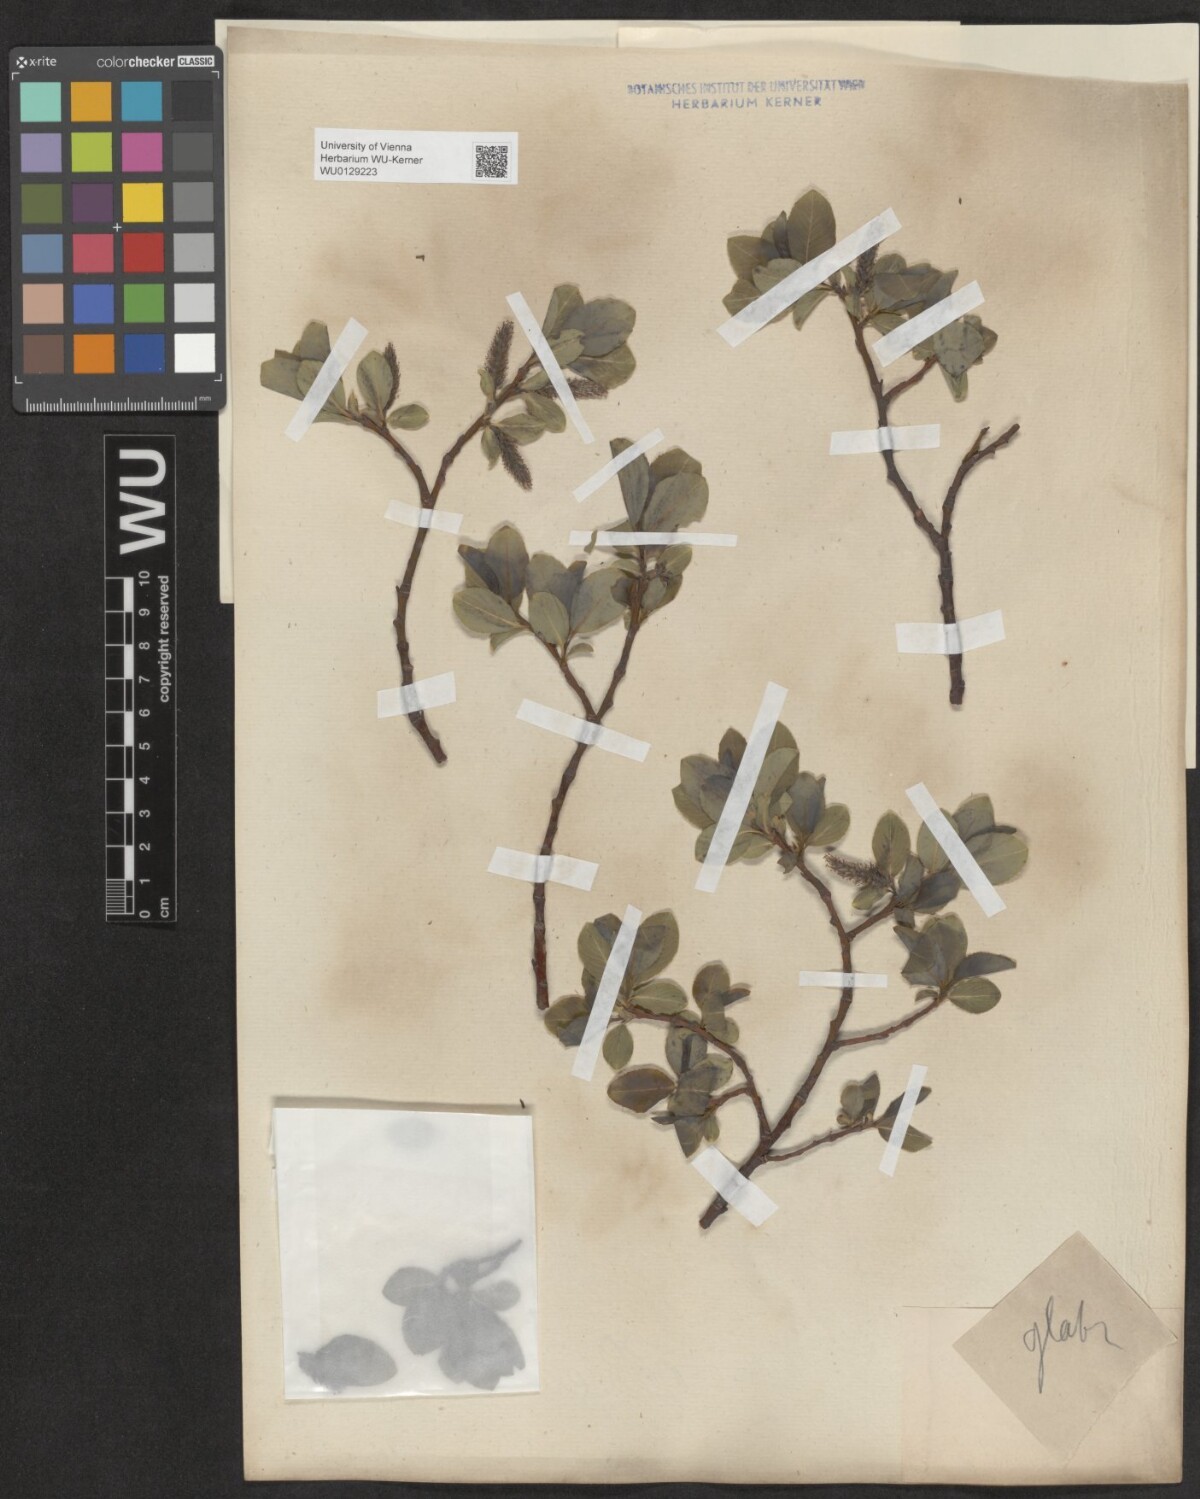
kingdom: Plantae
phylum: Tracheophyta
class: Magnoliopsida
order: Malpighiales
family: Salicaceae
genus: Salix
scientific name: Salix glabra
